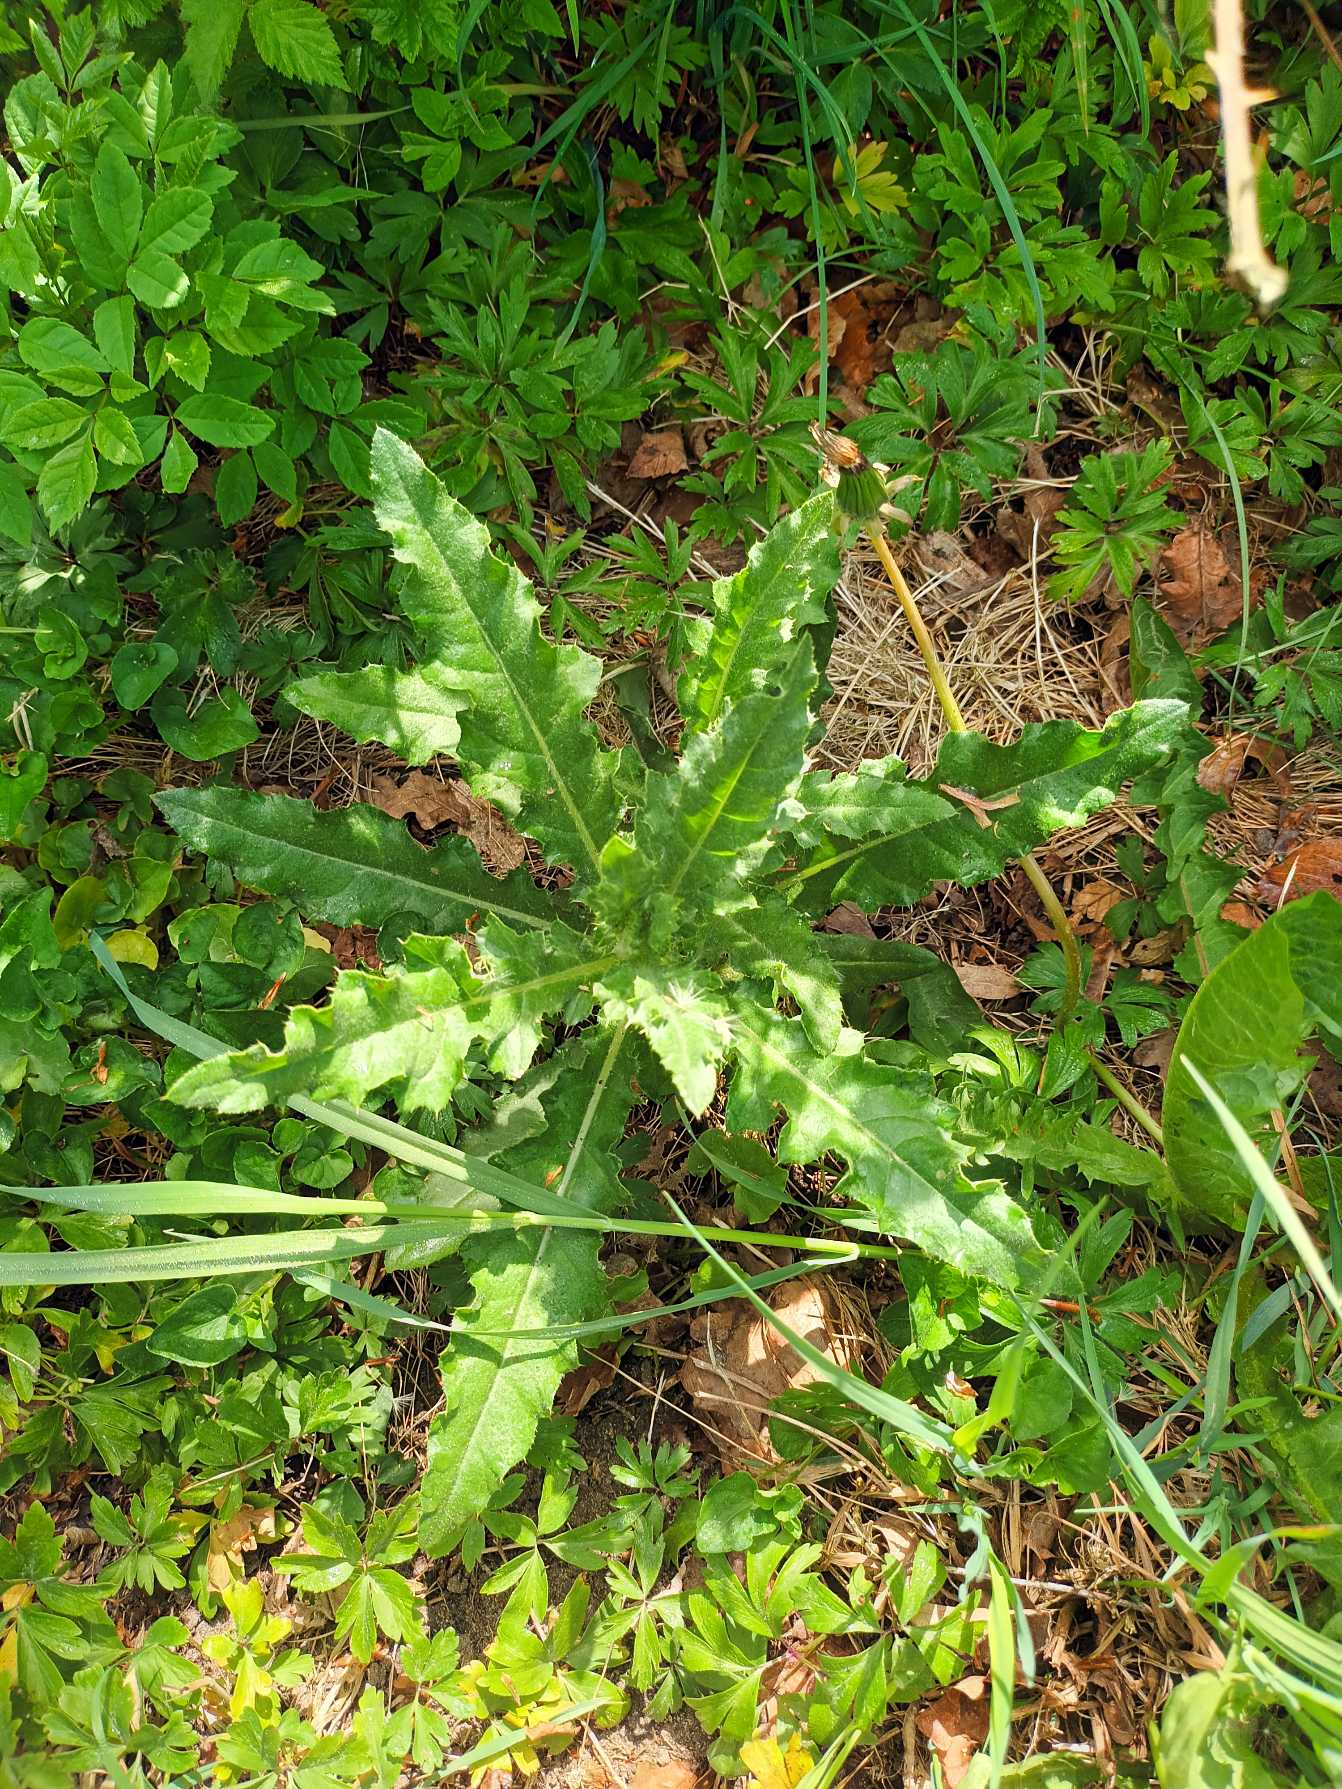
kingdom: Plantae
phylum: Tracheophyta
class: Magnoliopsida
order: Asterales
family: Asteraceae
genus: Cirsium
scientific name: Cirsium arvense
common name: Ager-tidsel
